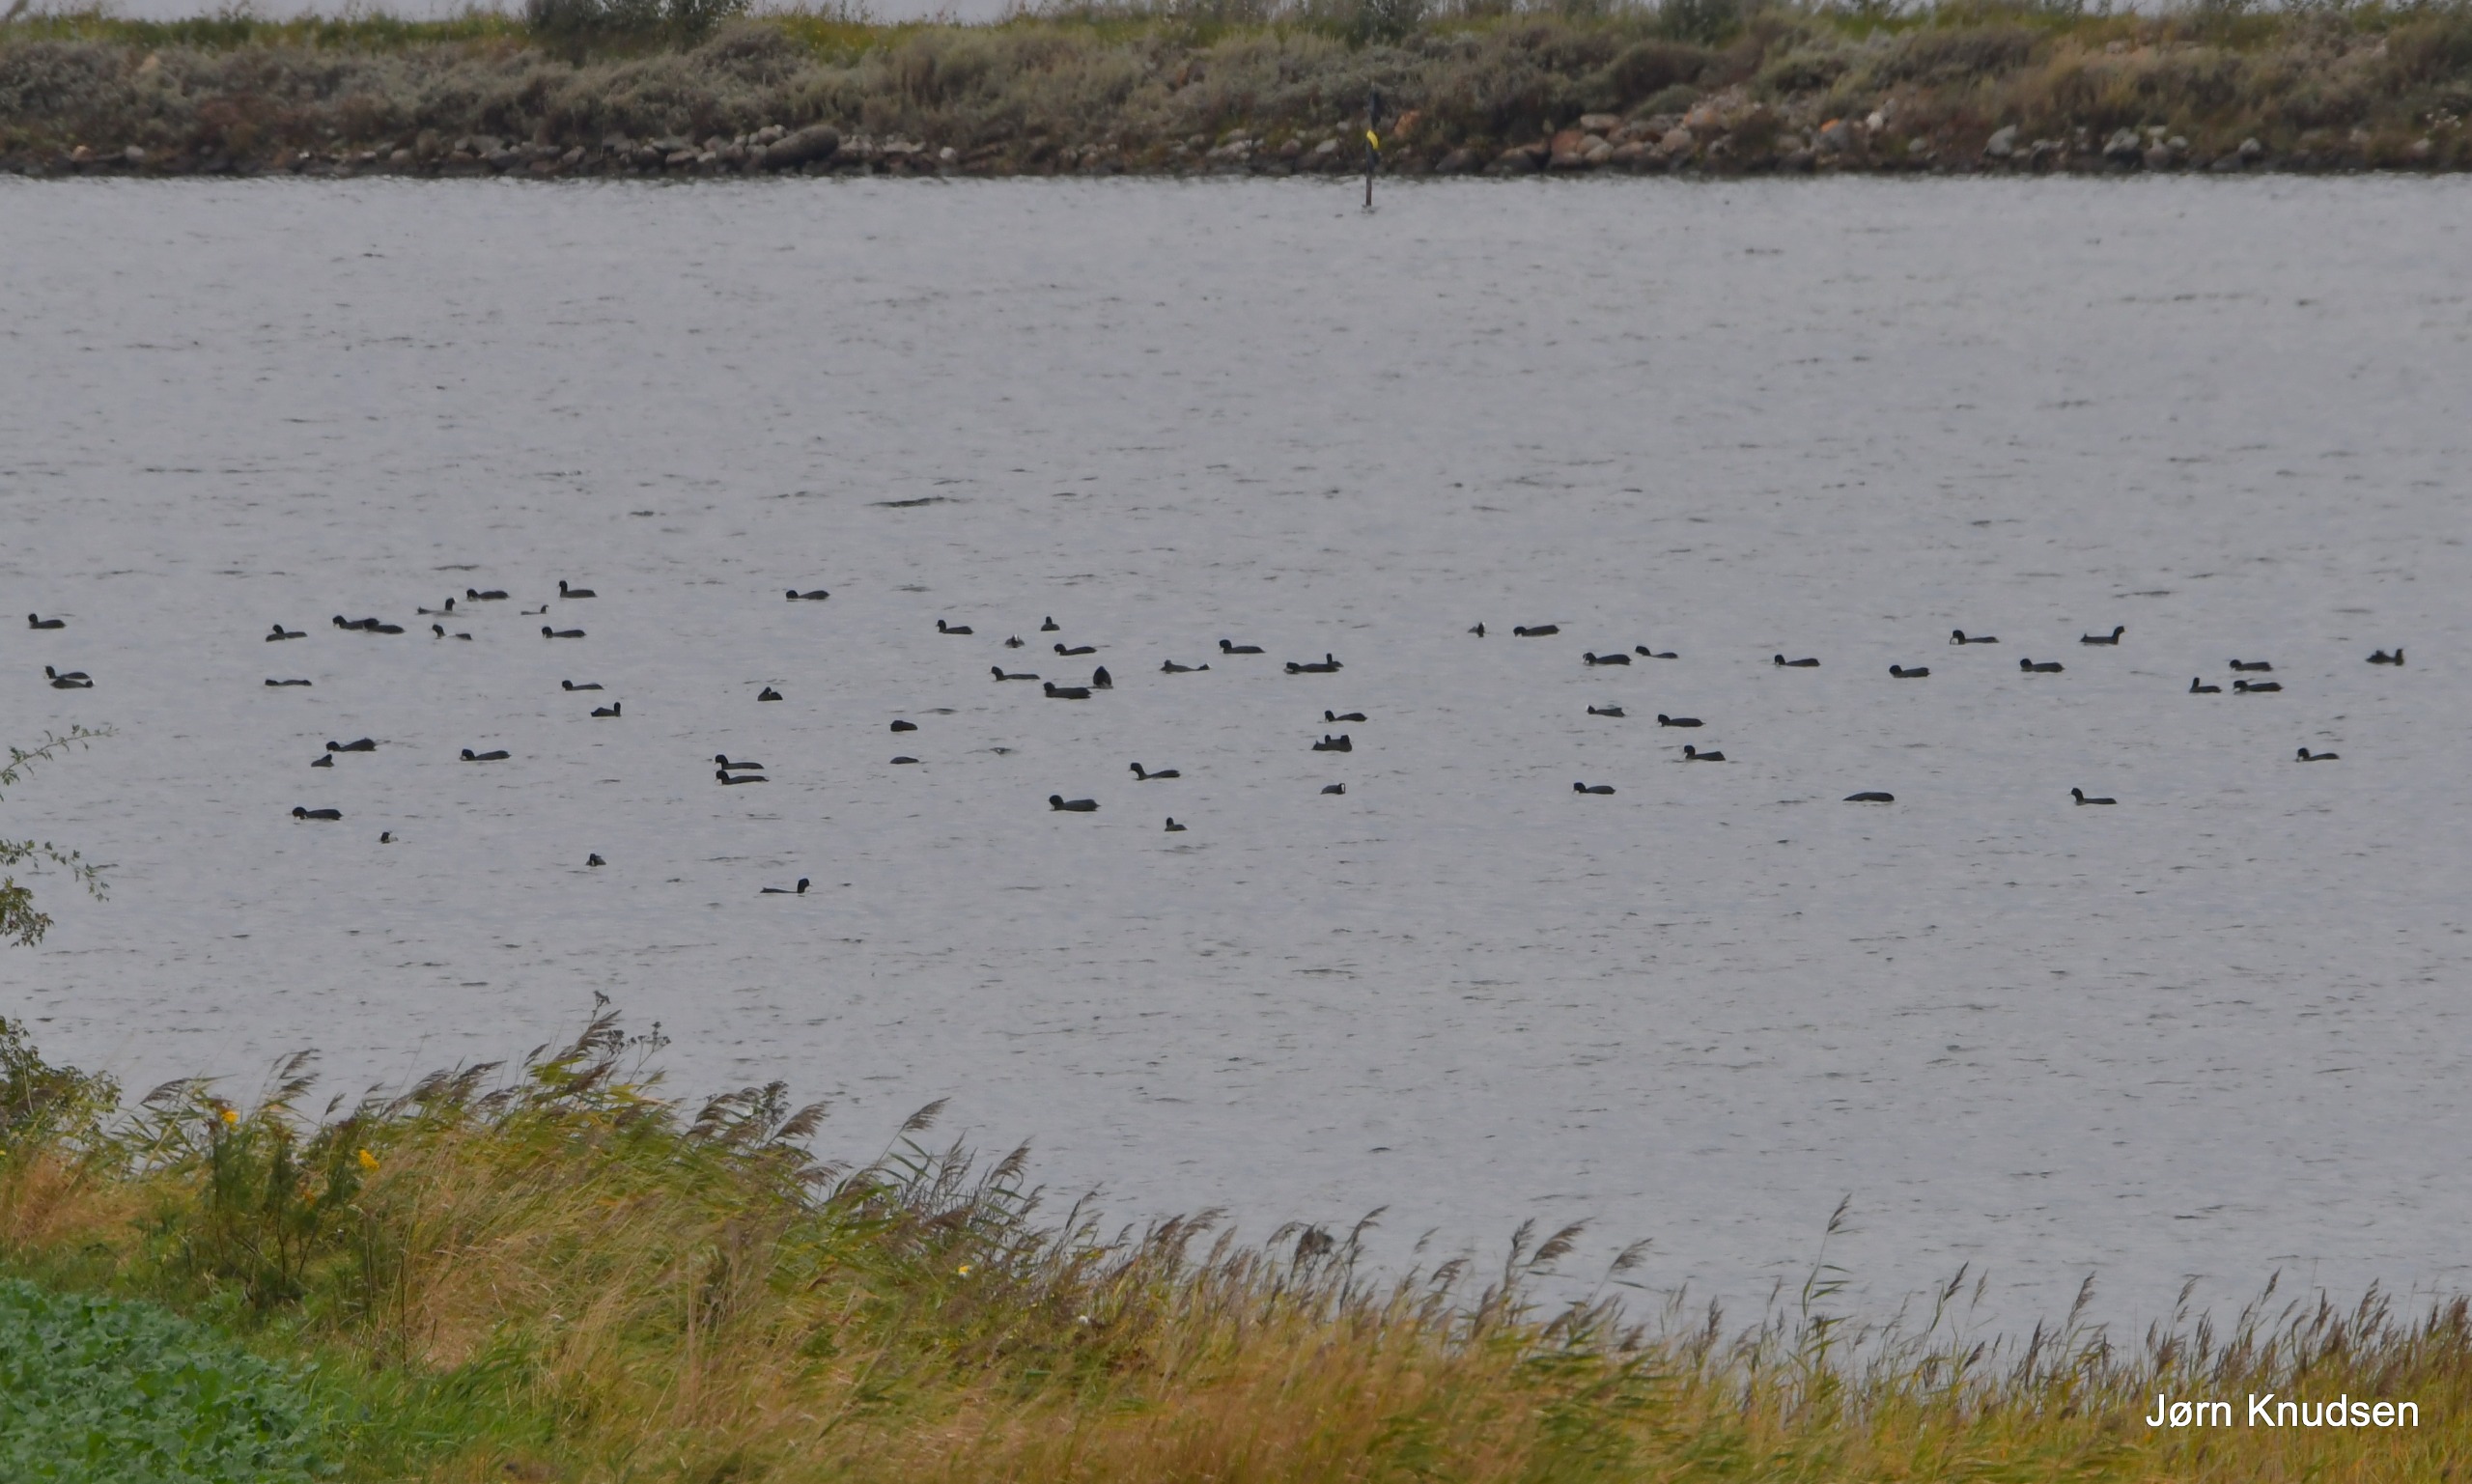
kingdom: Animalia
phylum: Chordata
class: Aves
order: Gruiformes
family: Rallidae
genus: Fulica
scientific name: Fulica atra
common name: Blishøne
